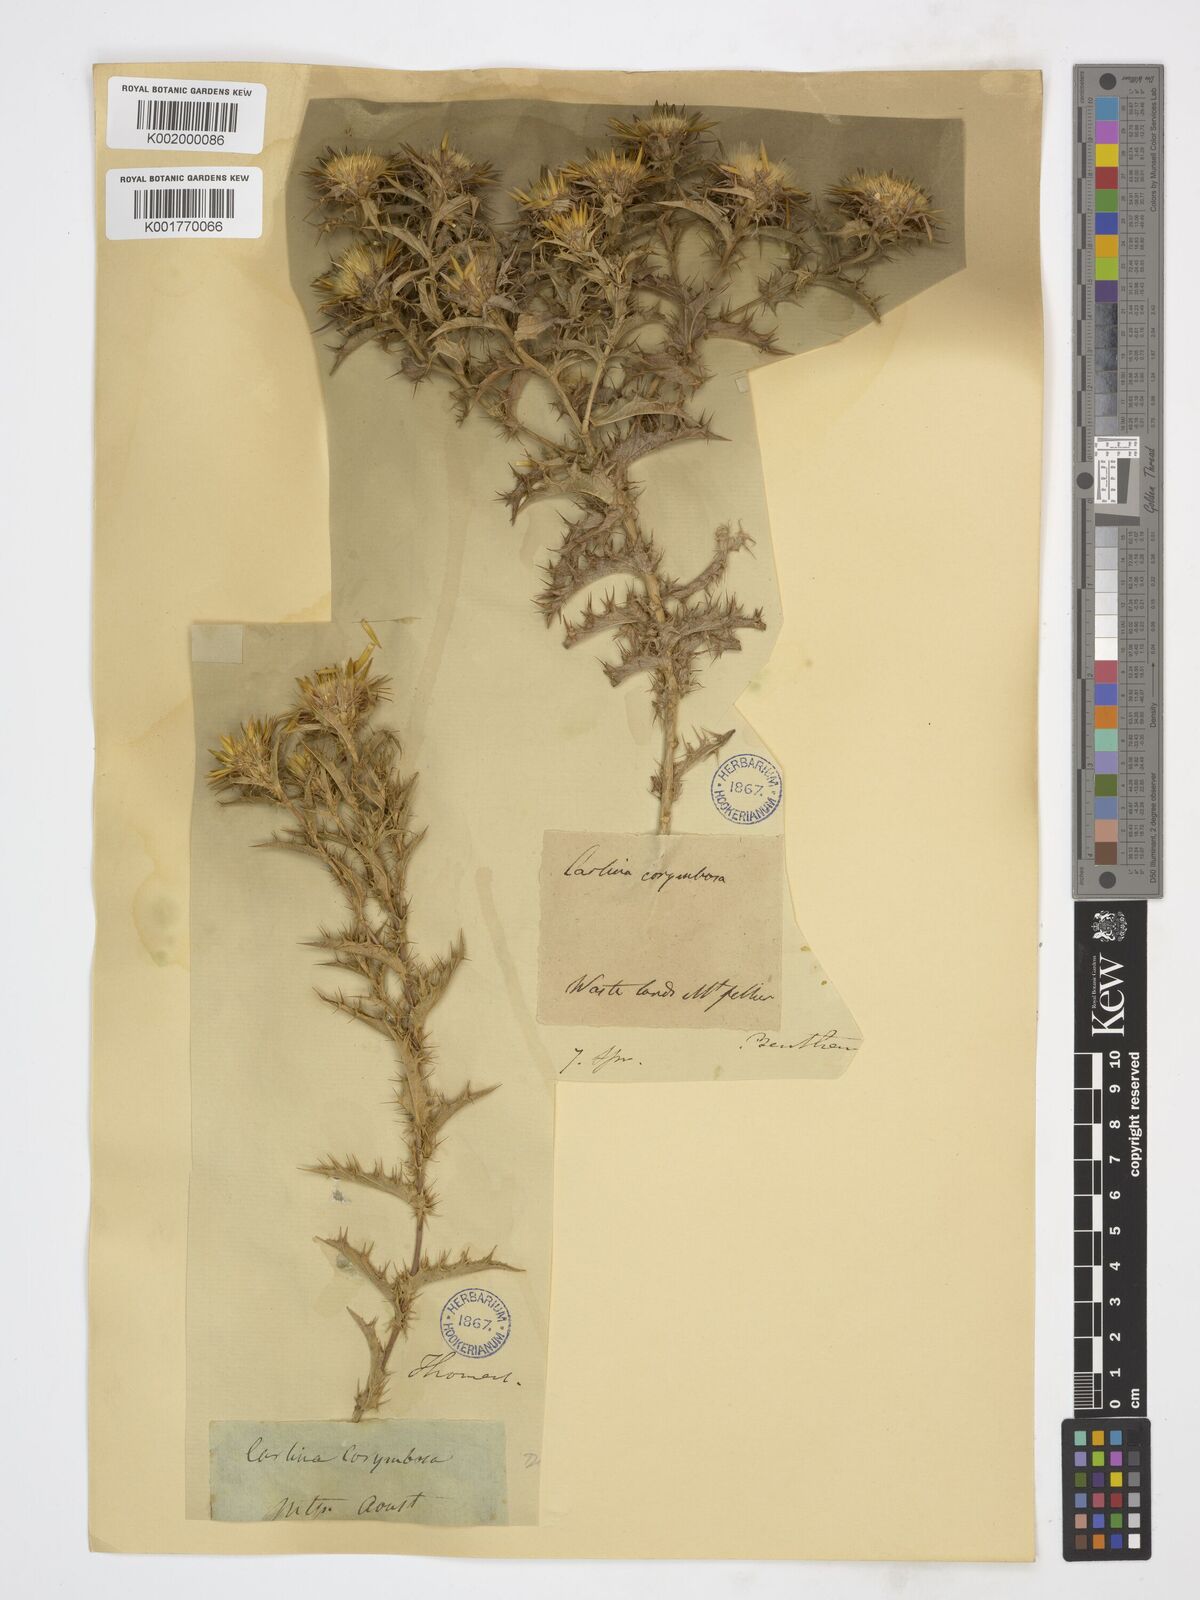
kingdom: Plantae
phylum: Tracheophyta
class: Magnoliopsida
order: Asterales
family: Asteraceae
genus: Carlina
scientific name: Carlina corymbosa
